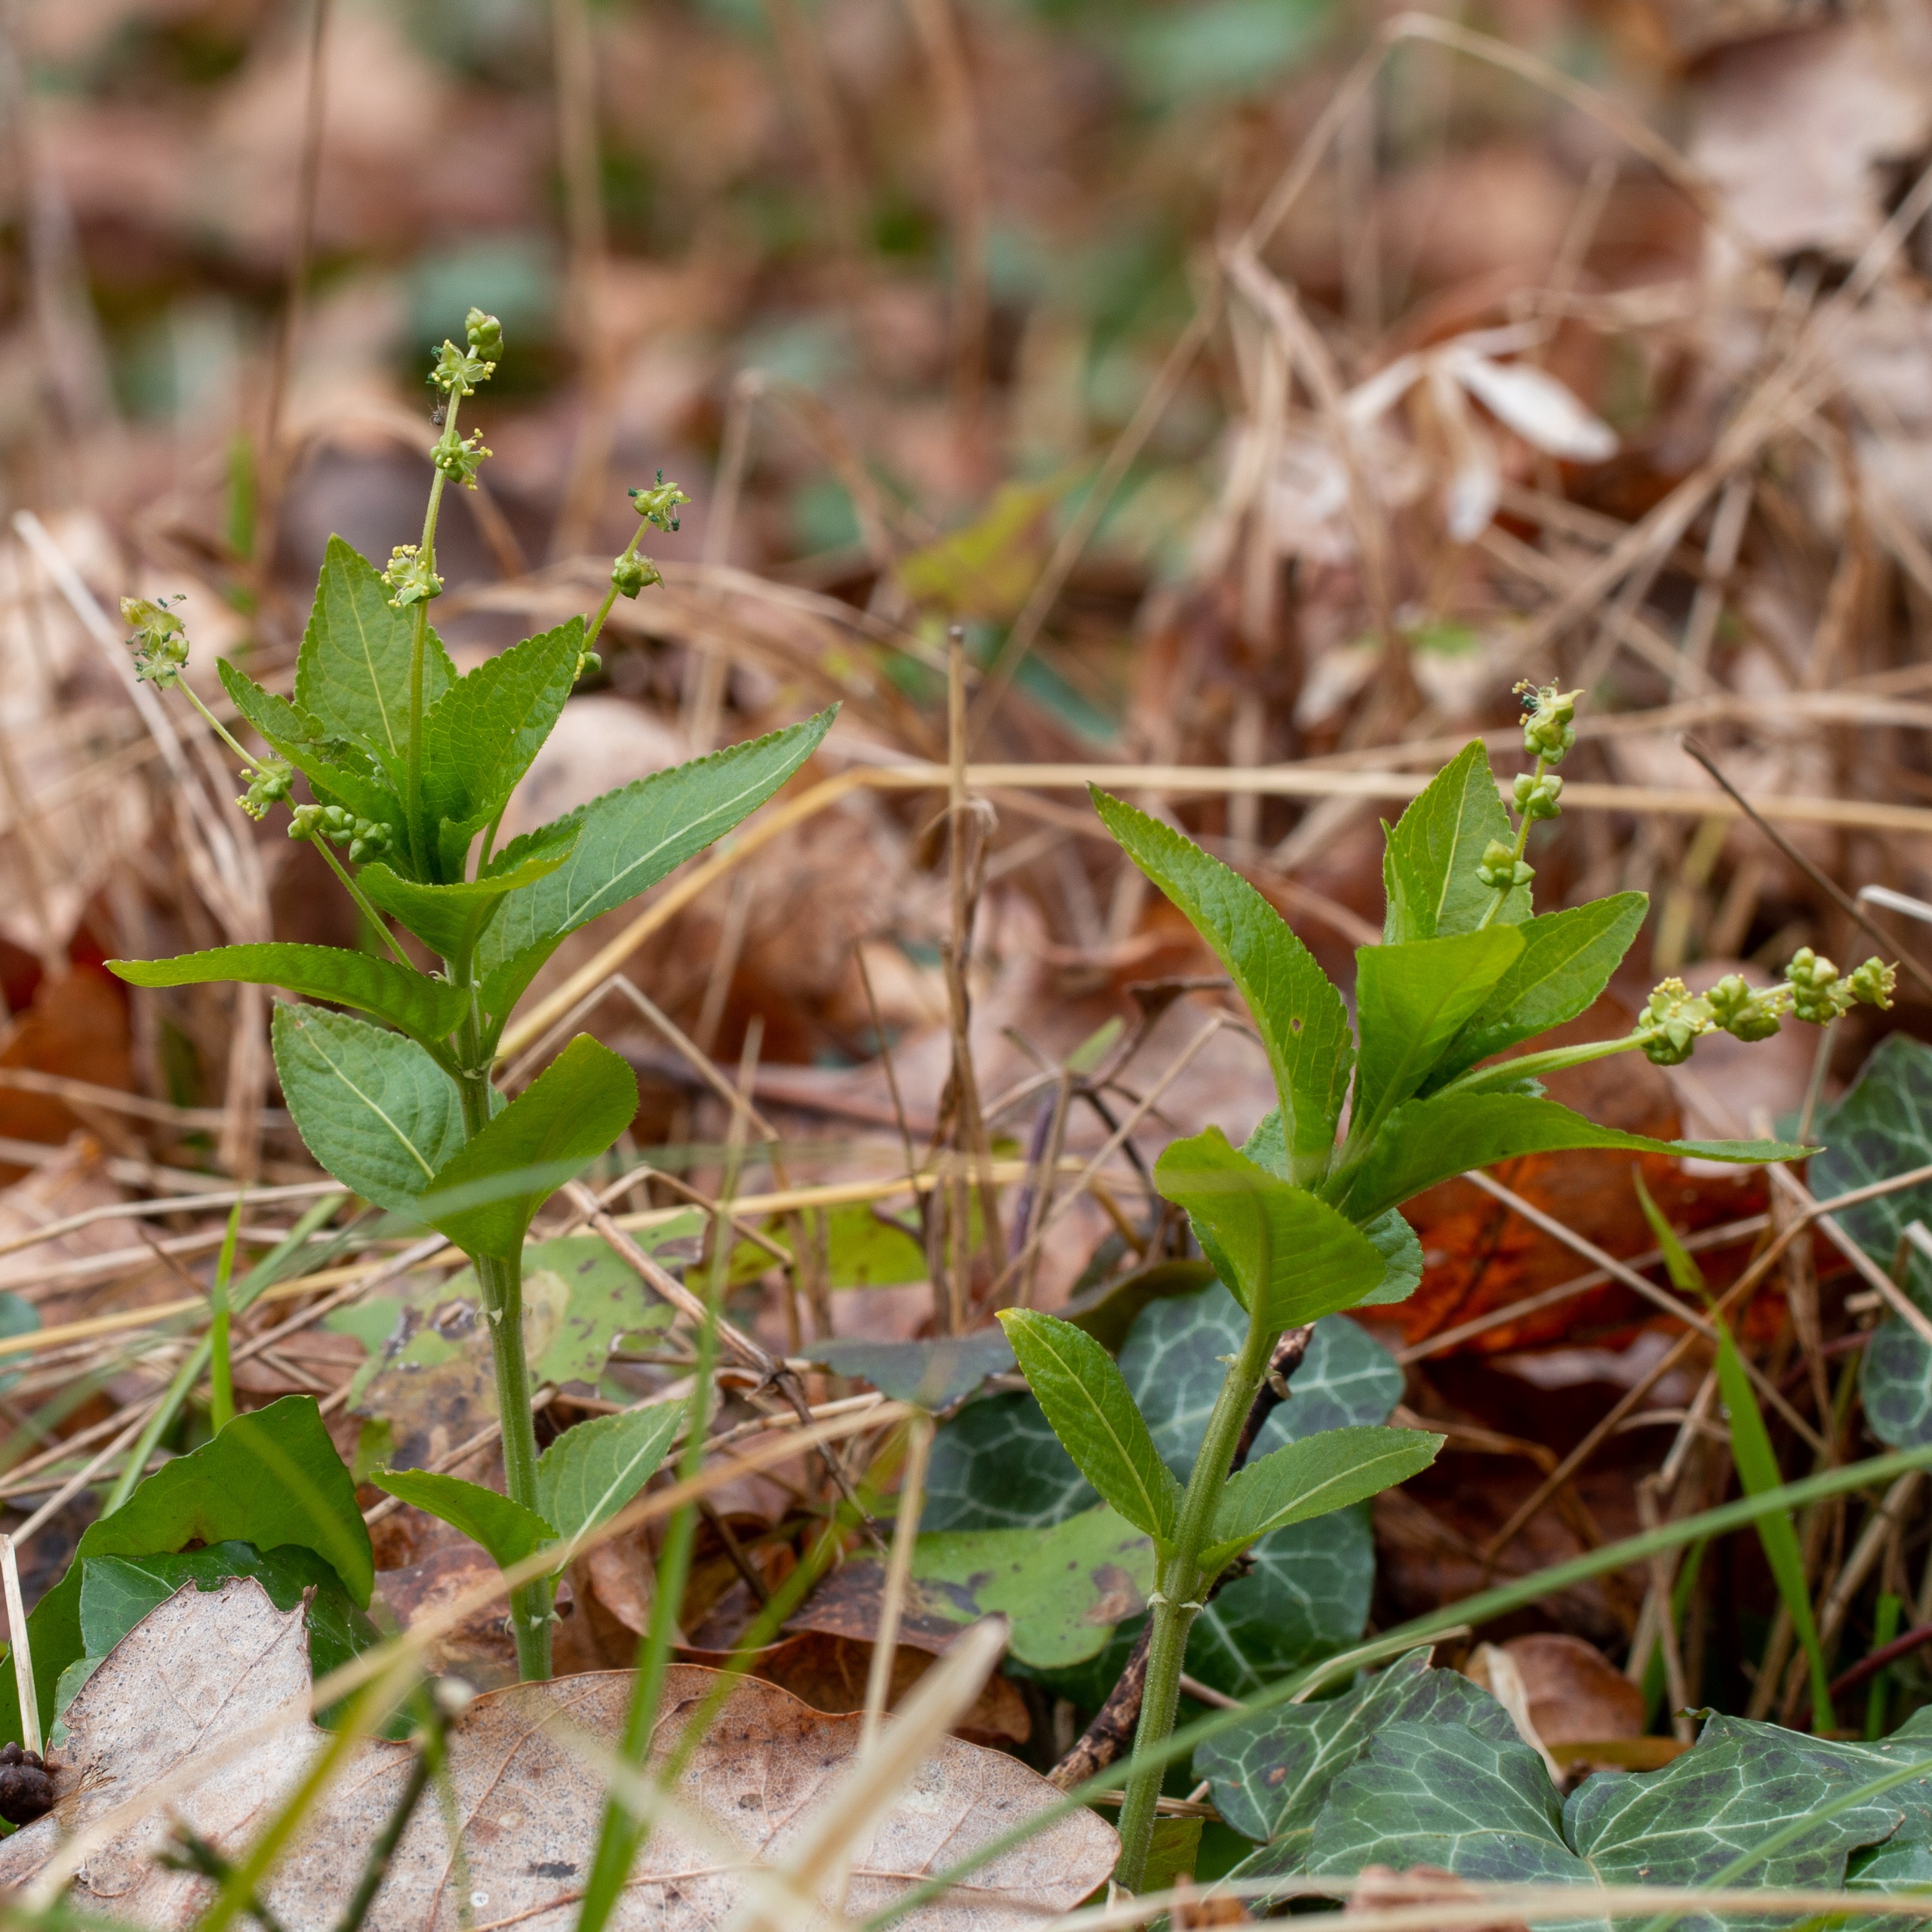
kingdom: Plantae
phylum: Tracheophyta
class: Magnoliopsida
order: Malpighiales
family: Euphorbiaceae
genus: Mercurialis
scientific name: Mercurialis perennis
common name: Almindelig bingelurt
